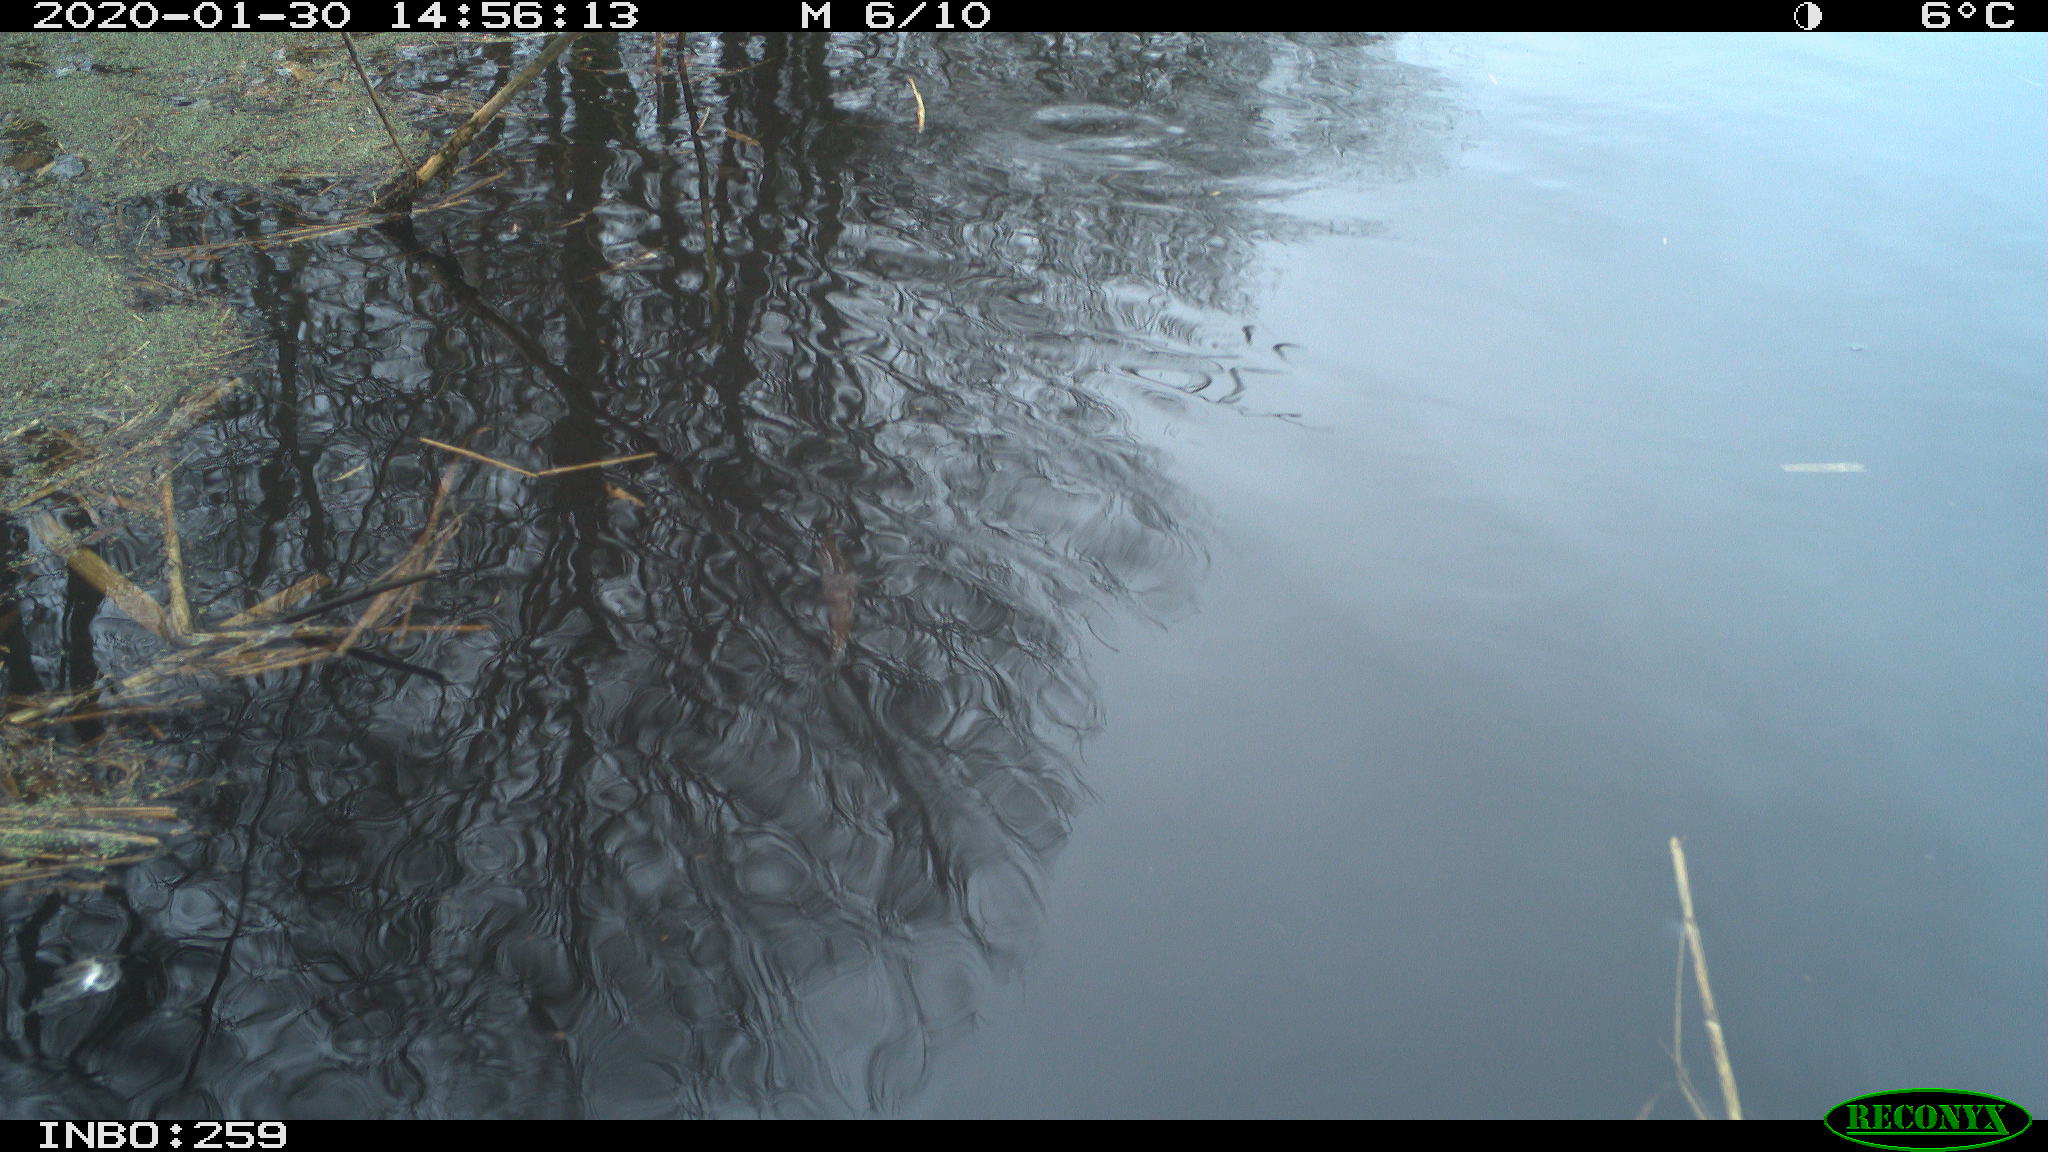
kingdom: Animalia
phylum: Chordata
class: Aves
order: Gruiformes
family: Rallidae
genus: Gallinula
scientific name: Gallinula chloropus
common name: Common moorhen
